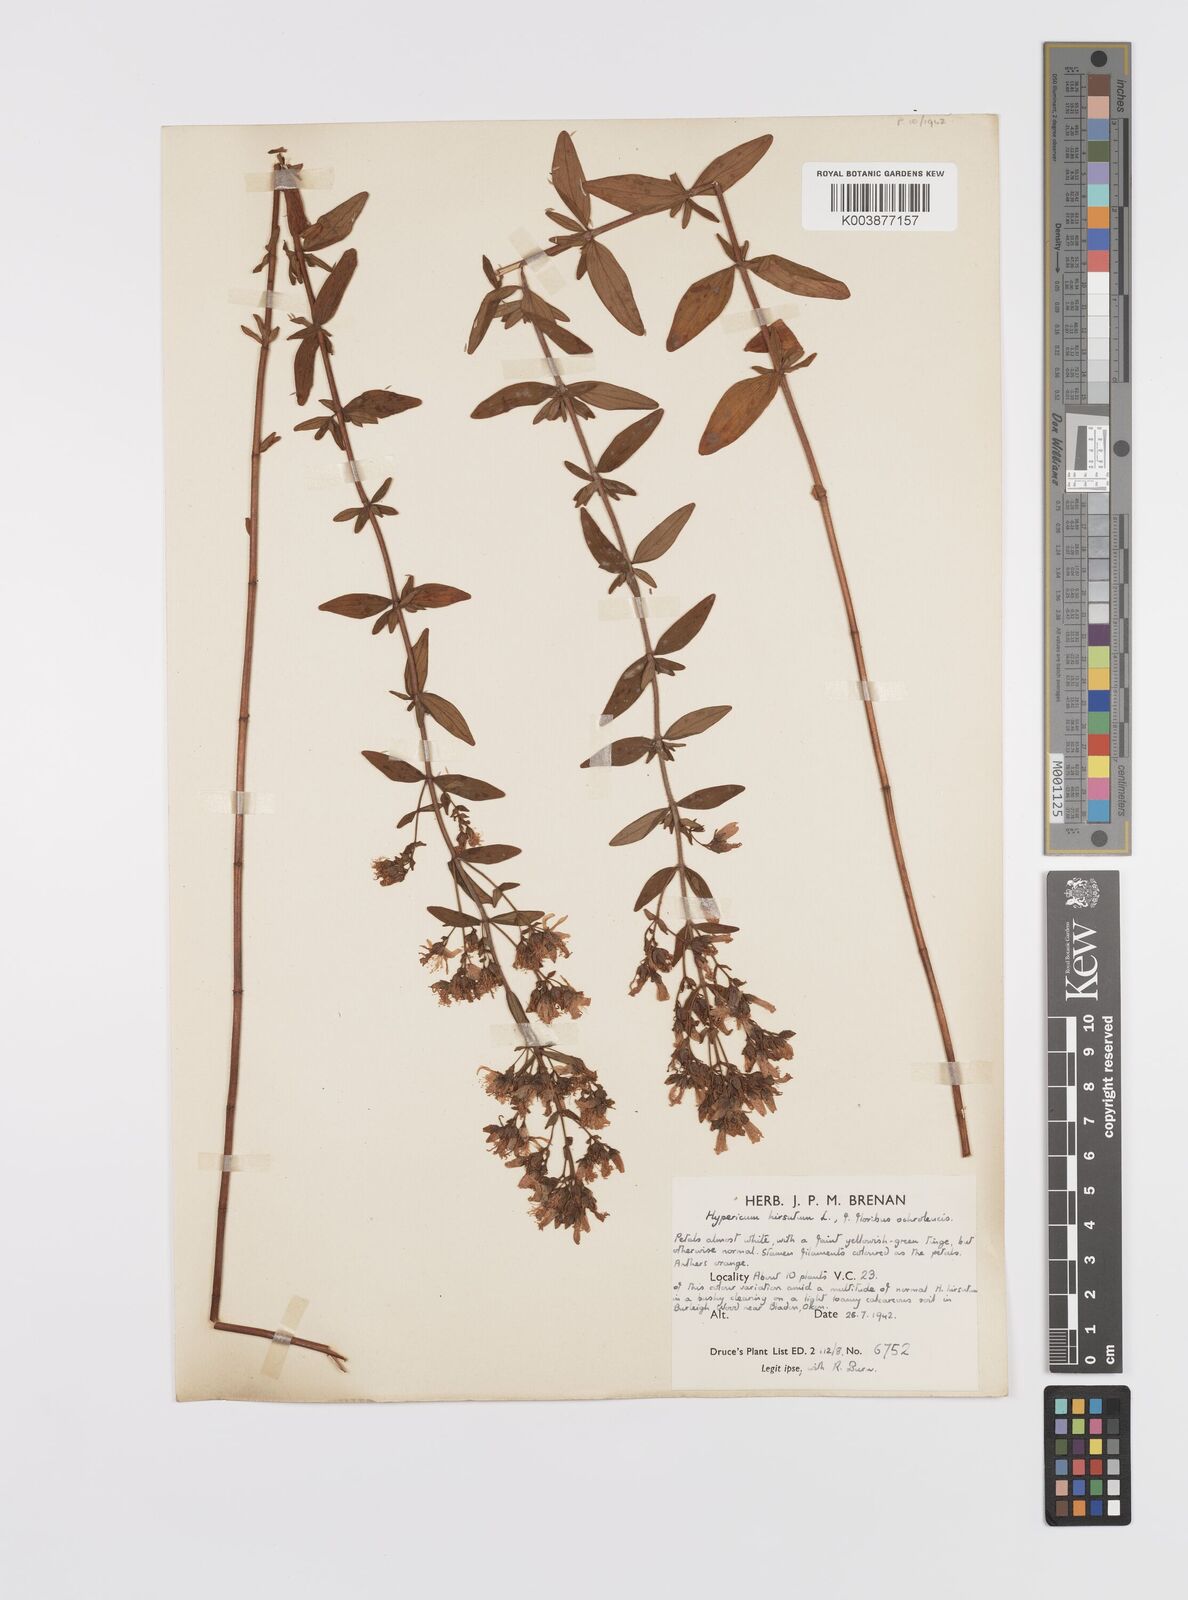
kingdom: Plantae
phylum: Tracheophyta
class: Magnoliopsida
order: Malpighiales
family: Hypericaceae
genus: Hypericum
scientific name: Hypericum hirsutum
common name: Hairy st. john's-wort
